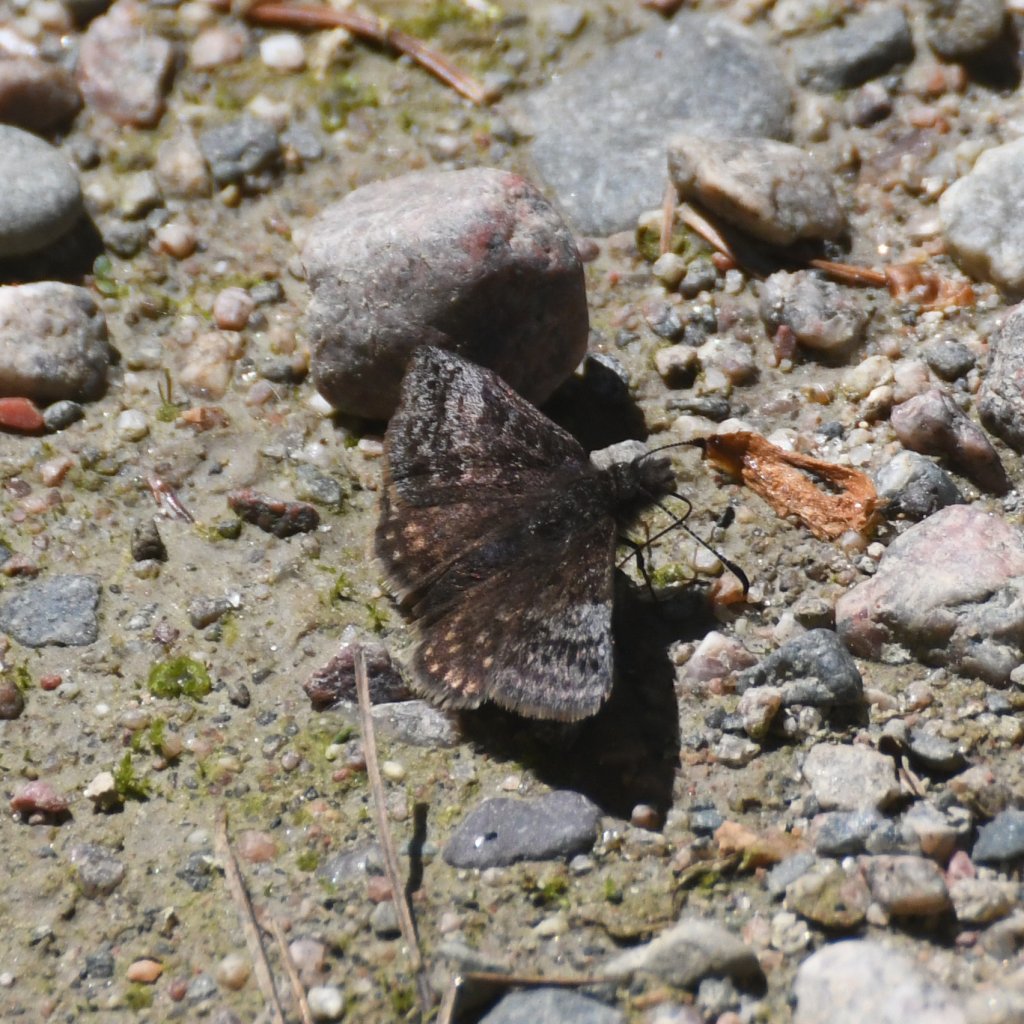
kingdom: Animalia
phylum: Arthropoda
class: Insecta
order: Lepidoptera
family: Hesperiidae
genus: Erynnis
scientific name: Erynnis icelus
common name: Dreamy Duskywing
